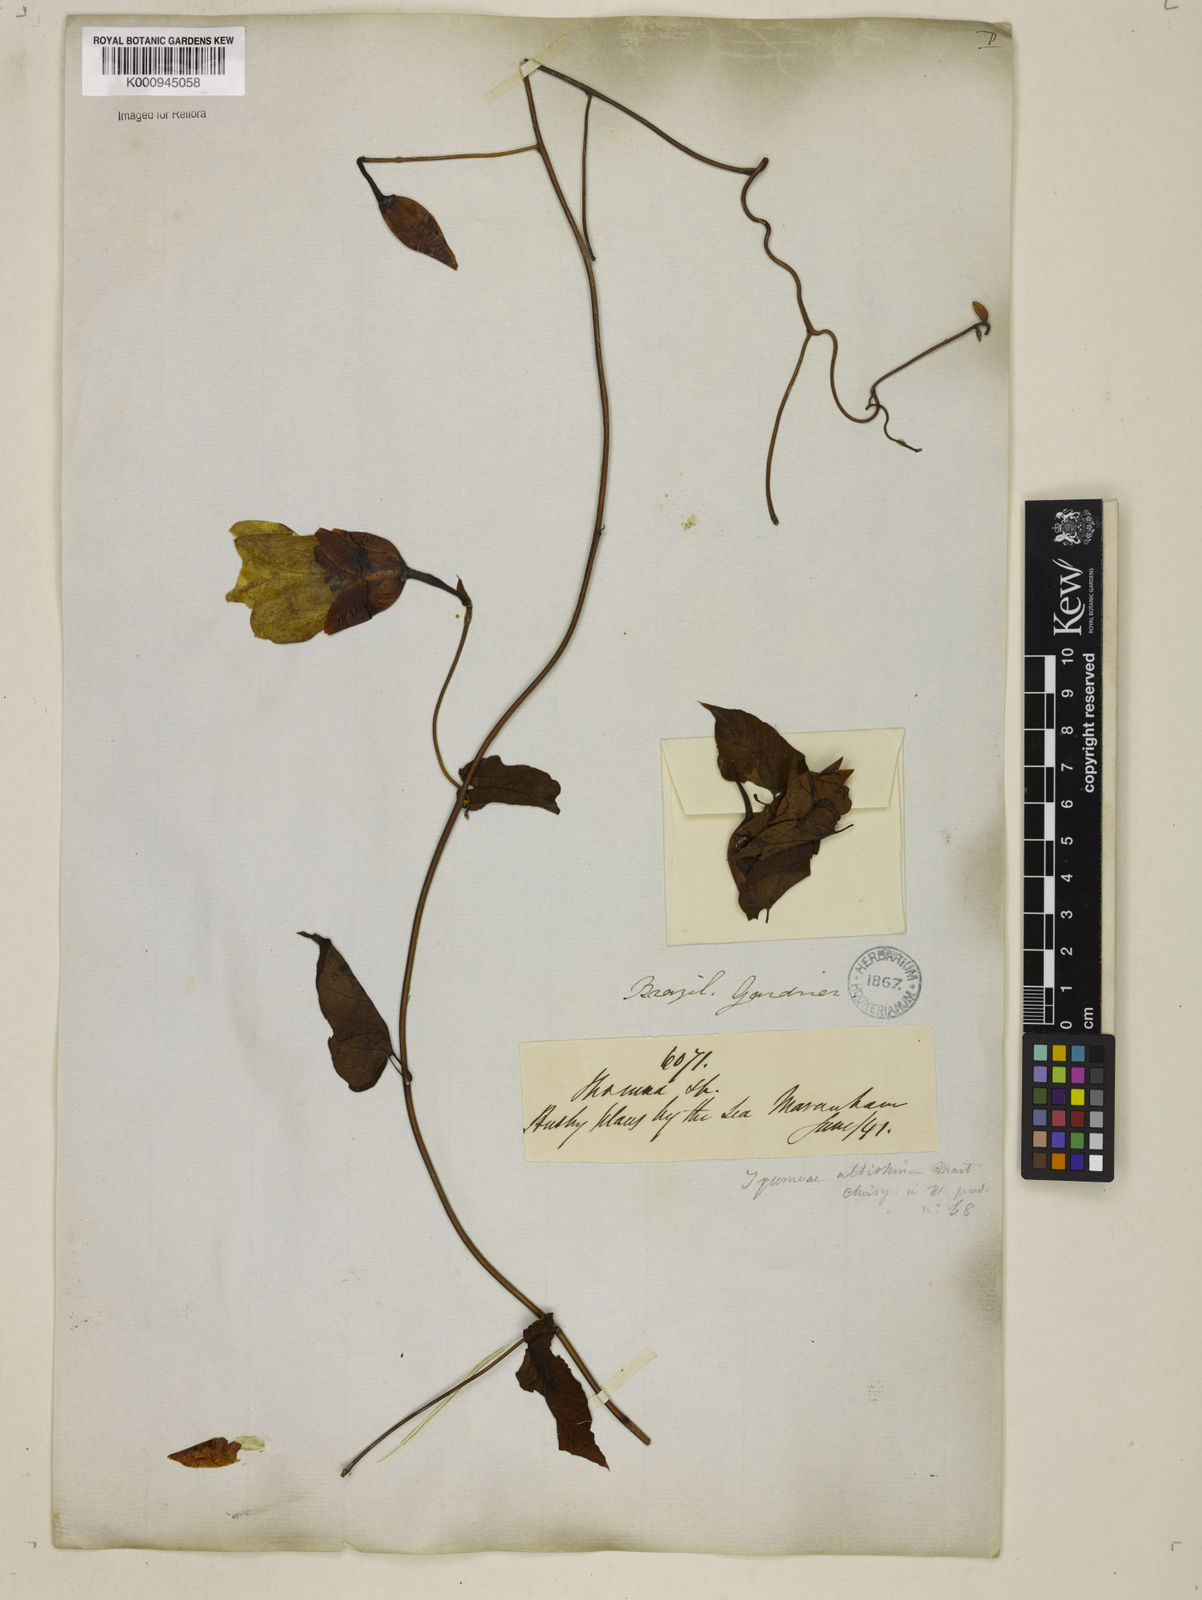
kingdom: Plantae
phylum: Tracheophyta
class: Magnoliopsida
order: Solanales
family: Convolvulaceae
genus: Operculina
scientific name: Operculina hamiltonii
